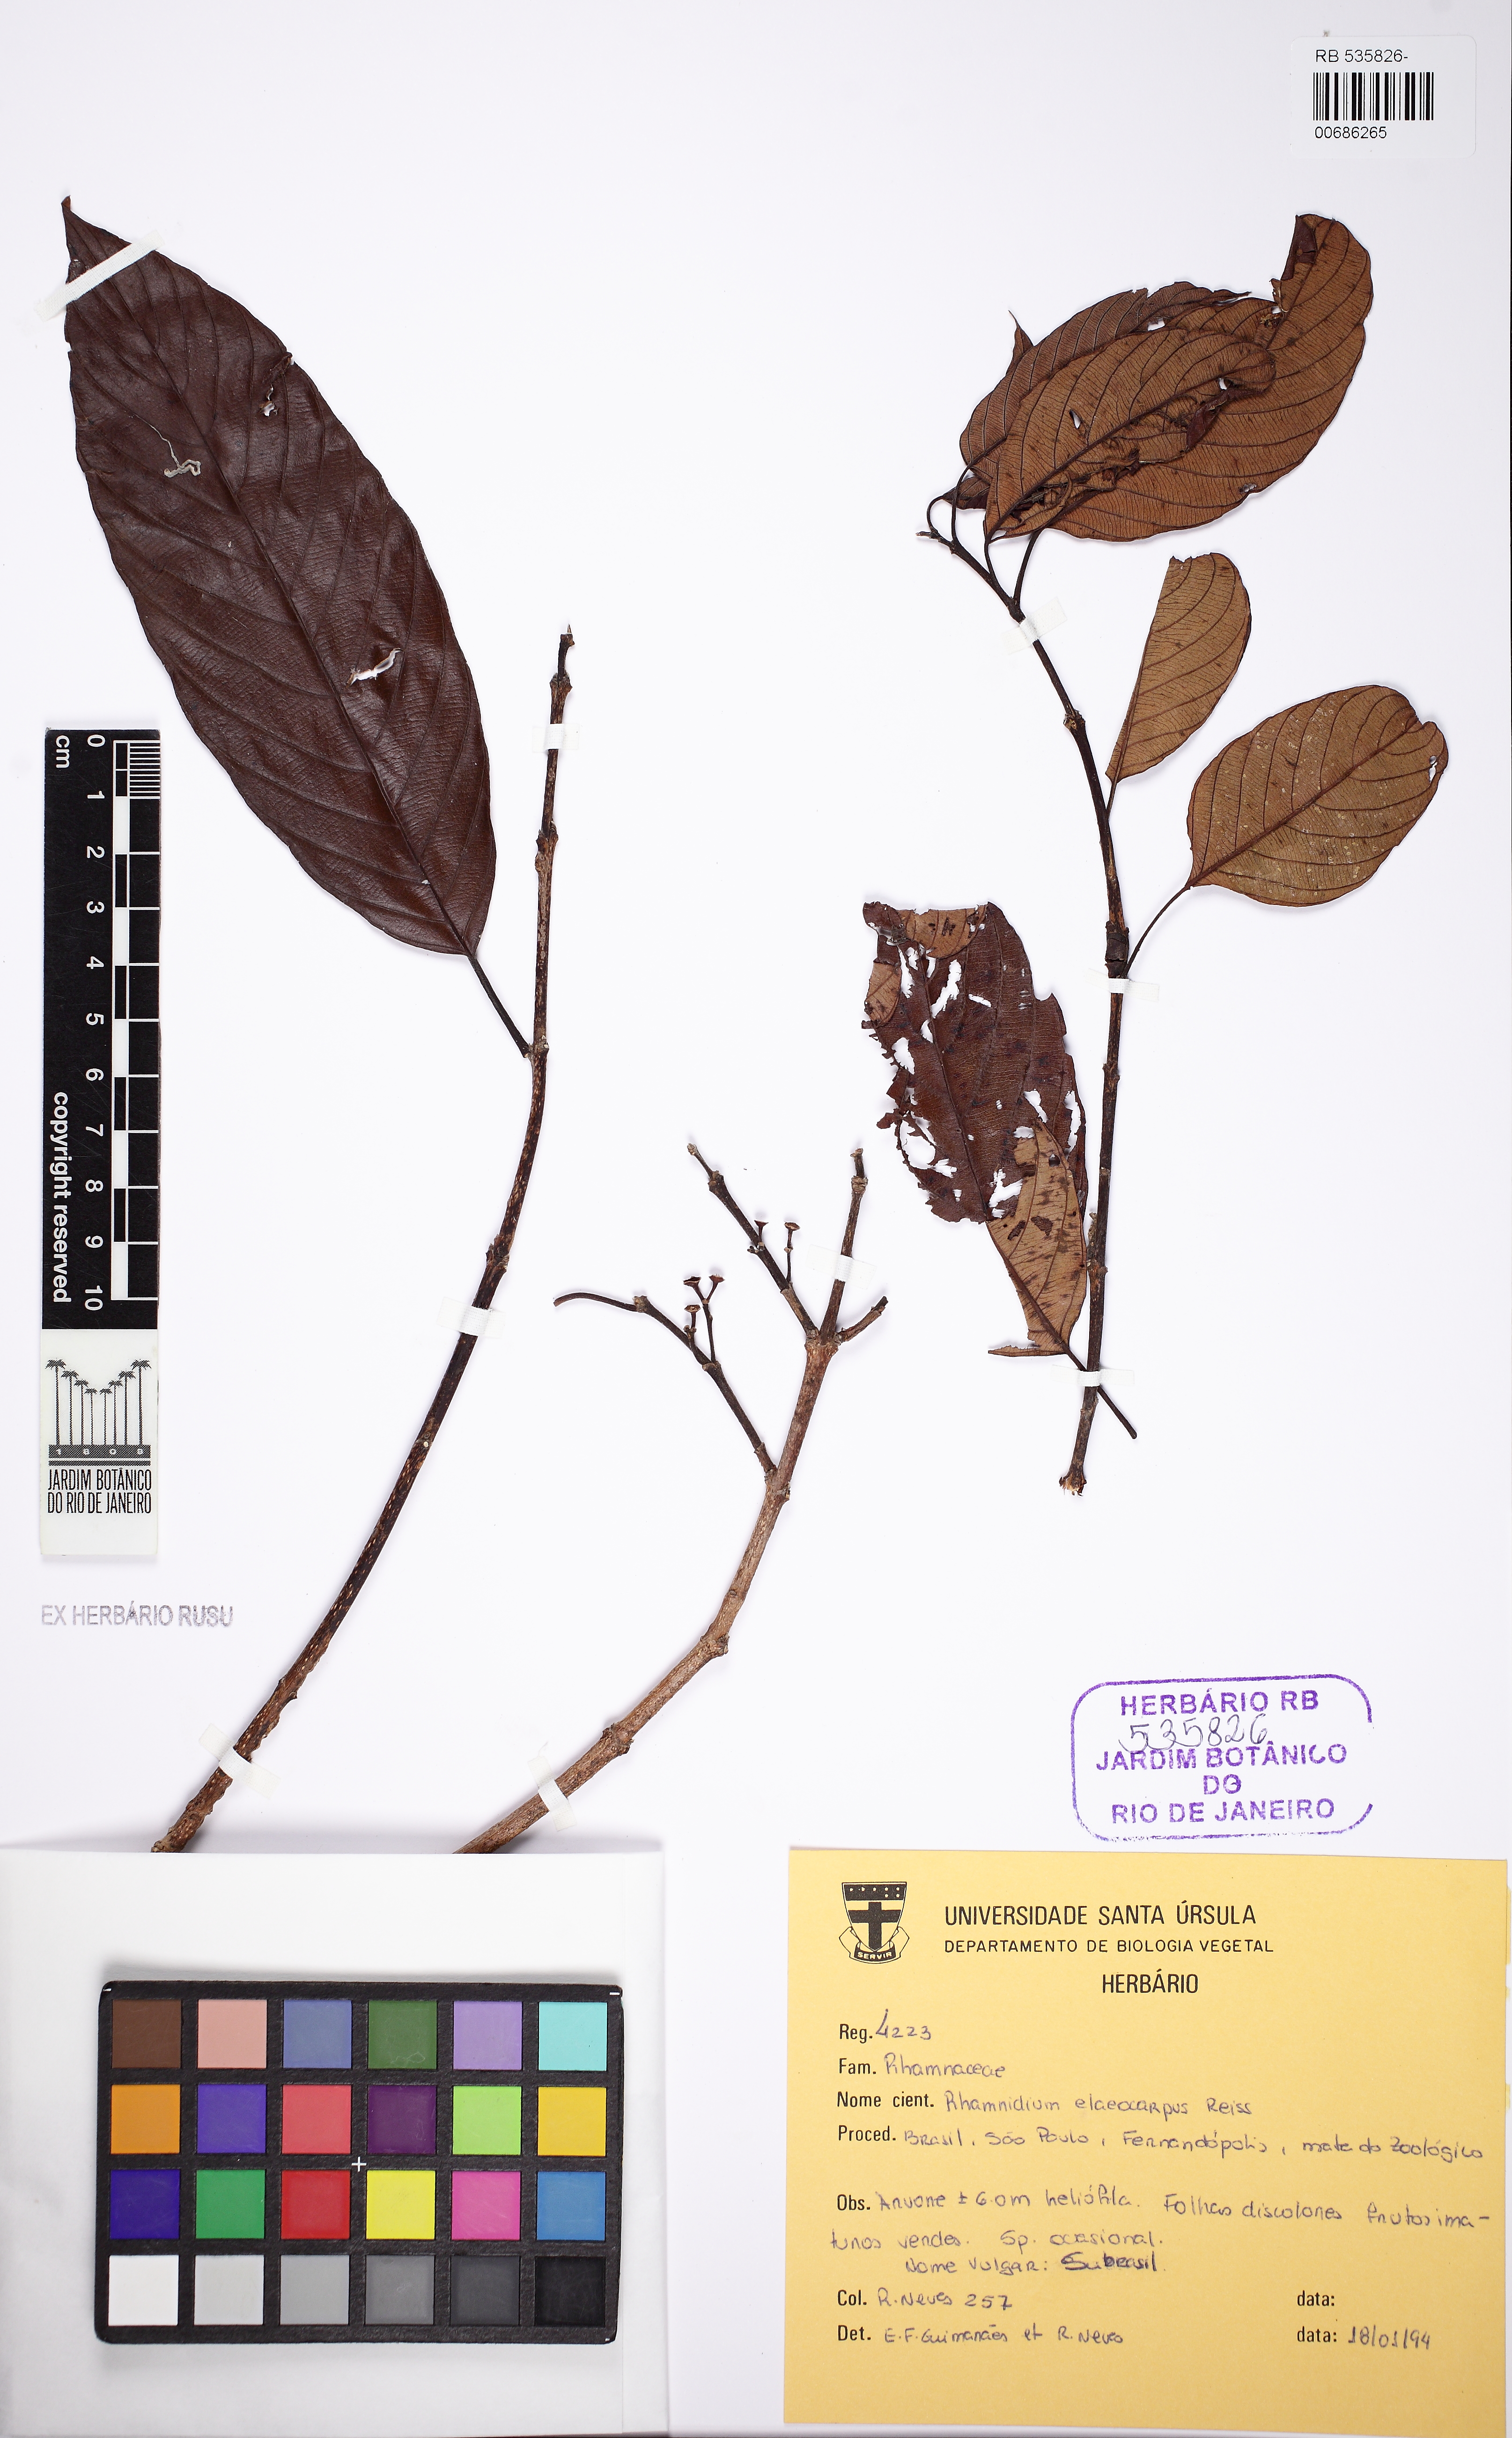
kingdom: Plantae
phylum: Tracheophyta
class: Magnoliopsida
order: Rosales
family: Rhamnaceae
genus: Rhamnidium
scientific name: Rhamnidium elaeocarpum
